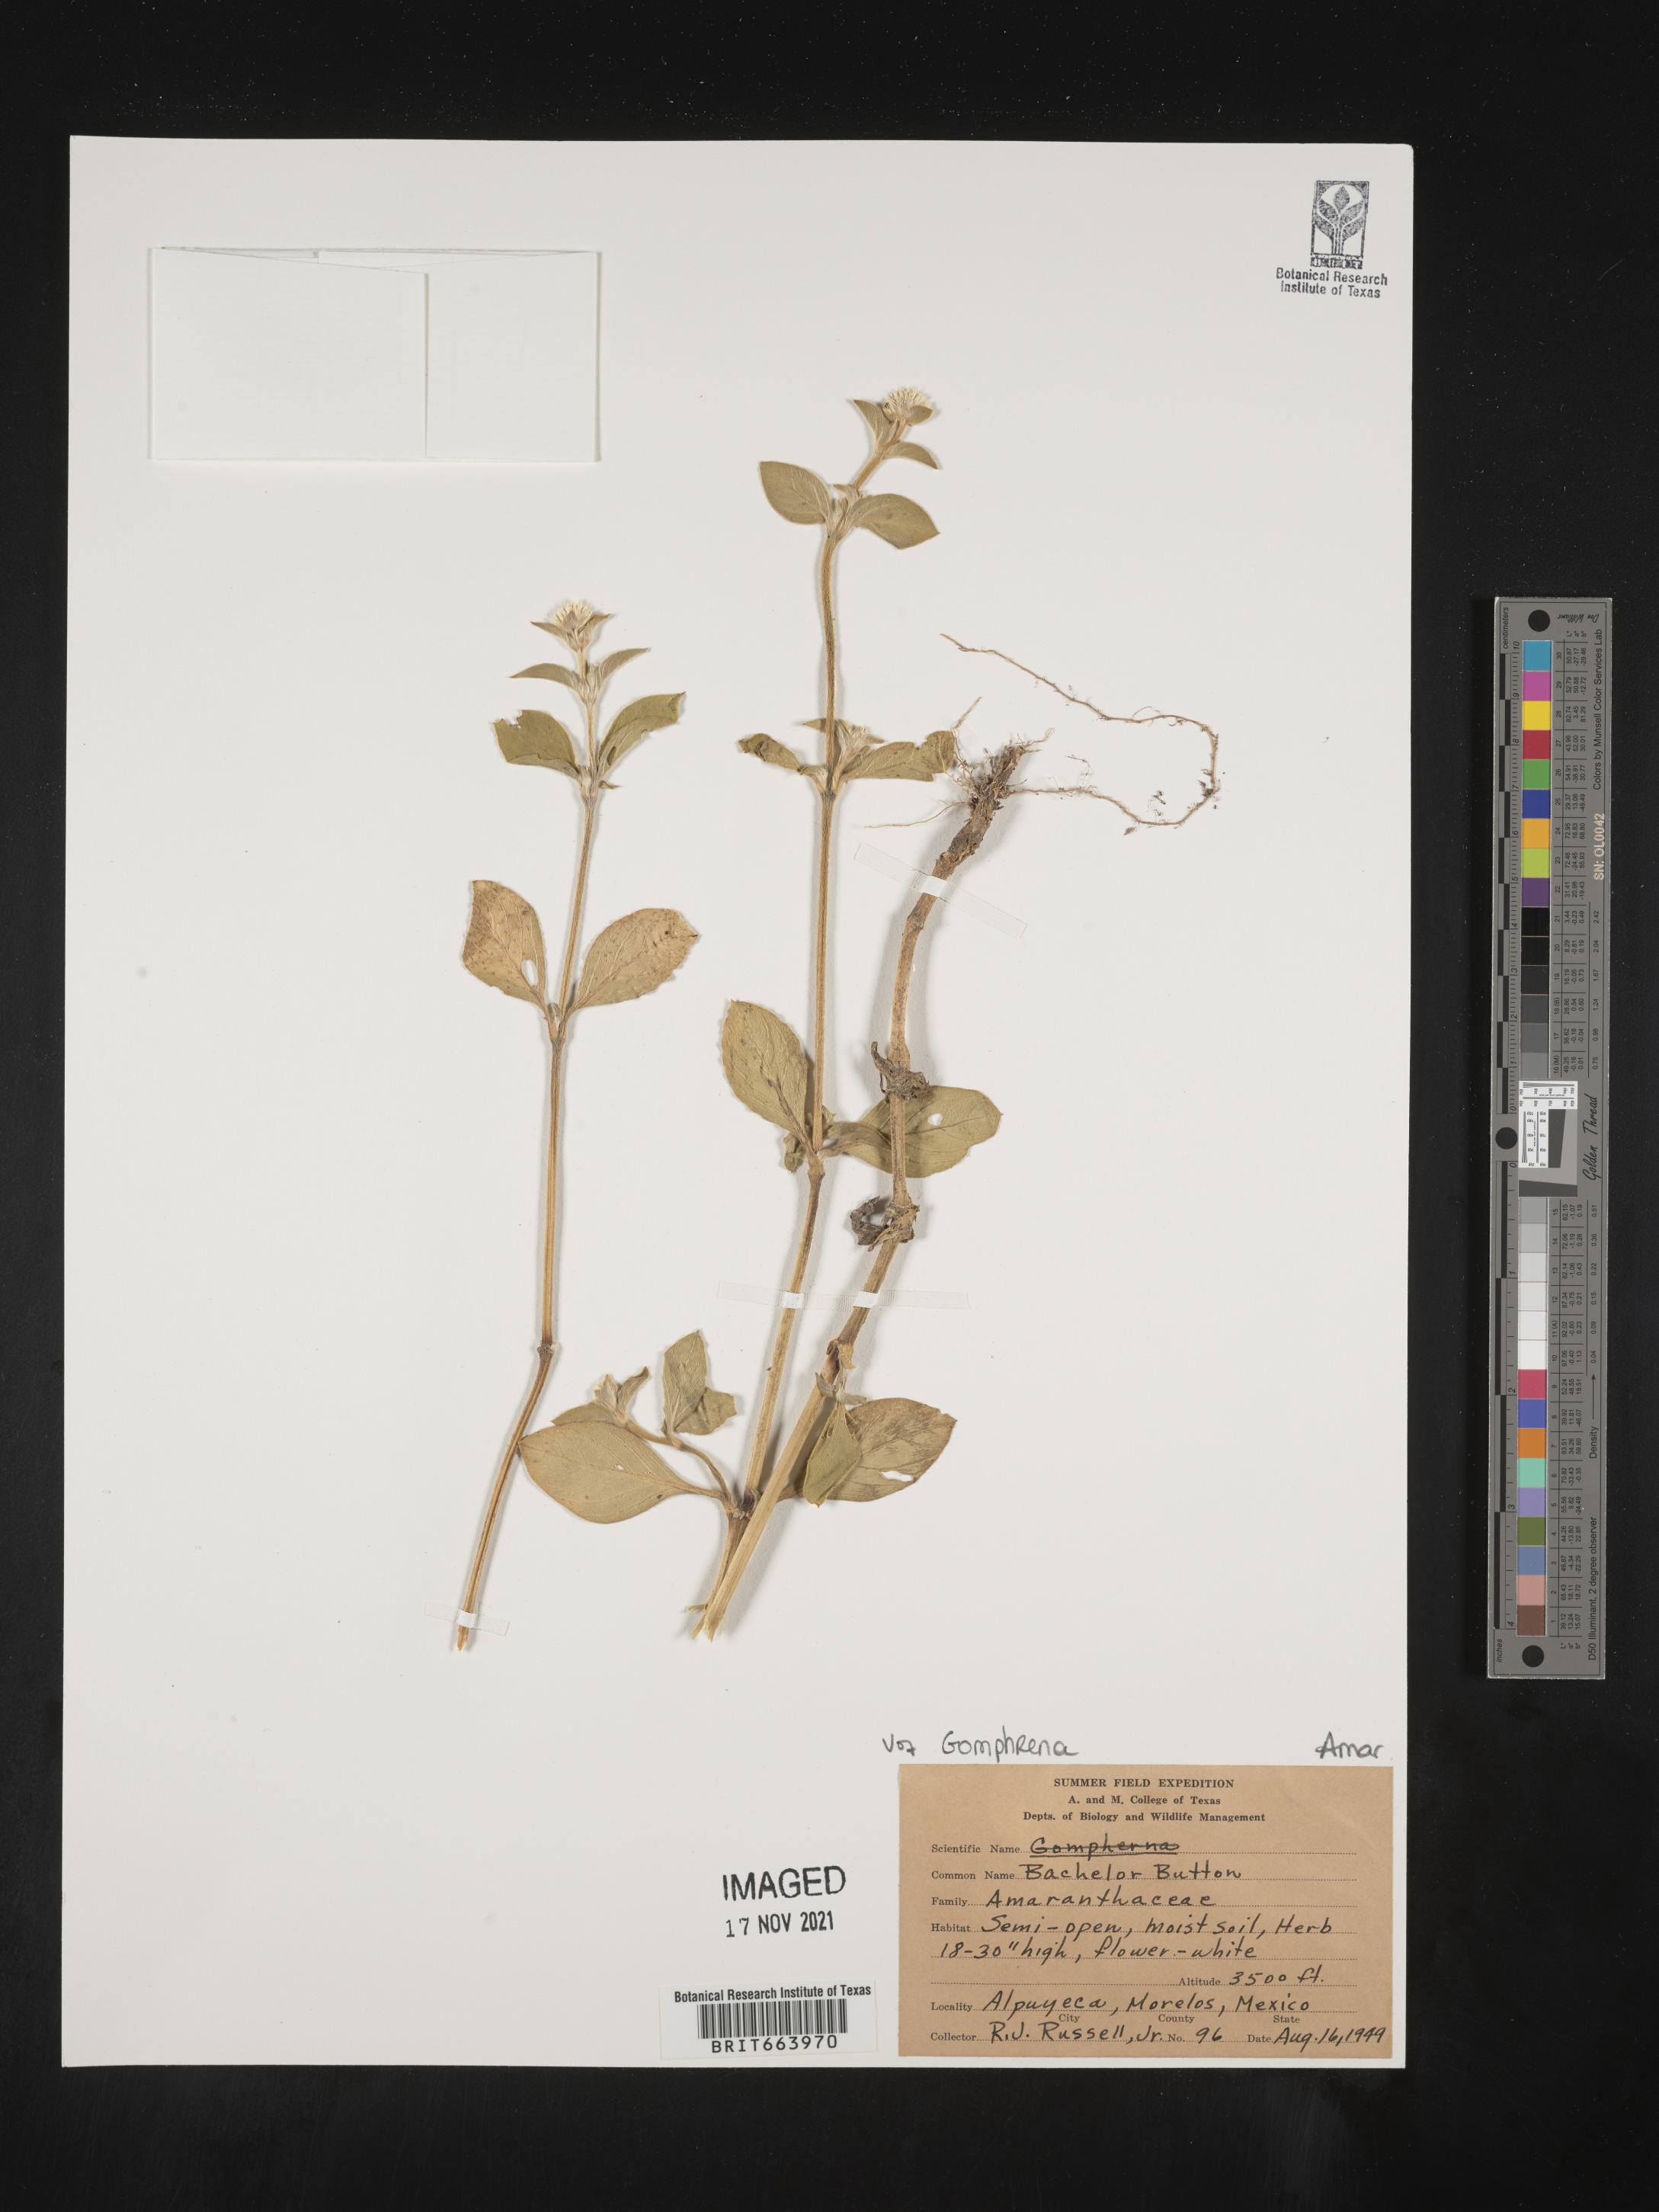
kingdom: Plantae
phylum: Tracheophyta
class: Magnoliopsida
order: Caryophyllales
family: Amaranthaceae
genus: Gomphrena
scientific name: Gomphrena
